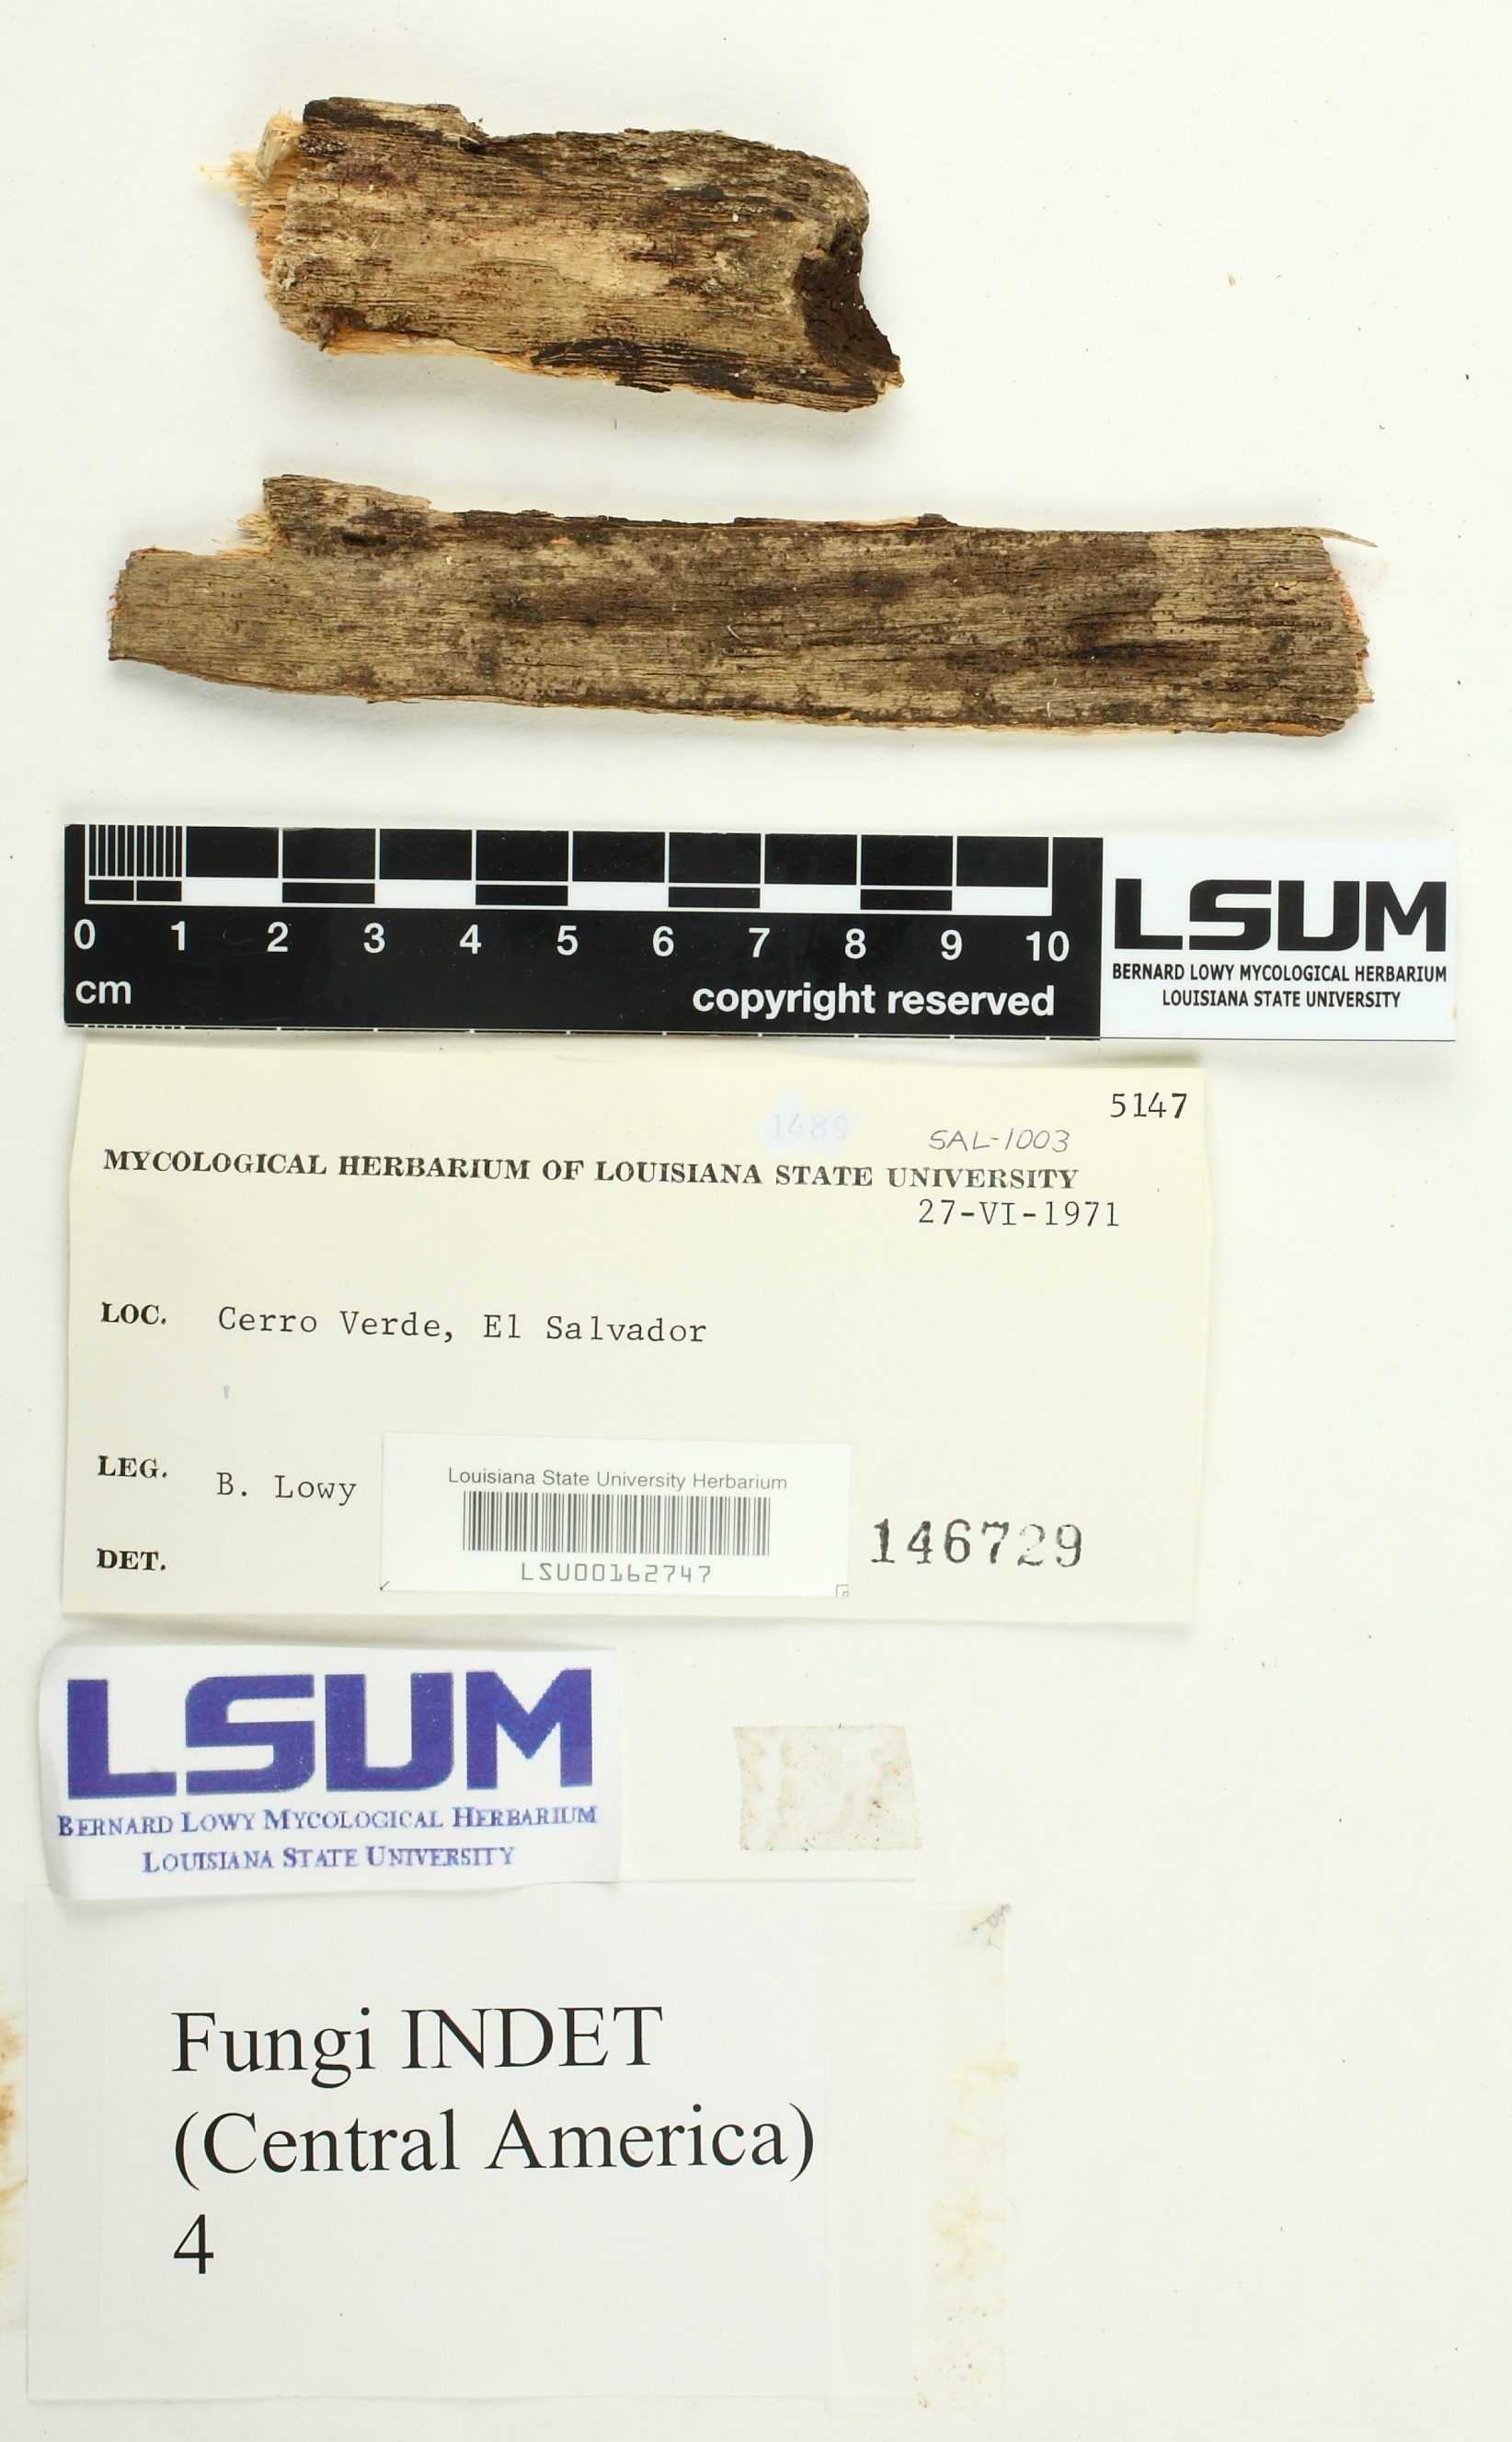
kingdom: Fungi
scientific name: Fungi
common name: Fungi
